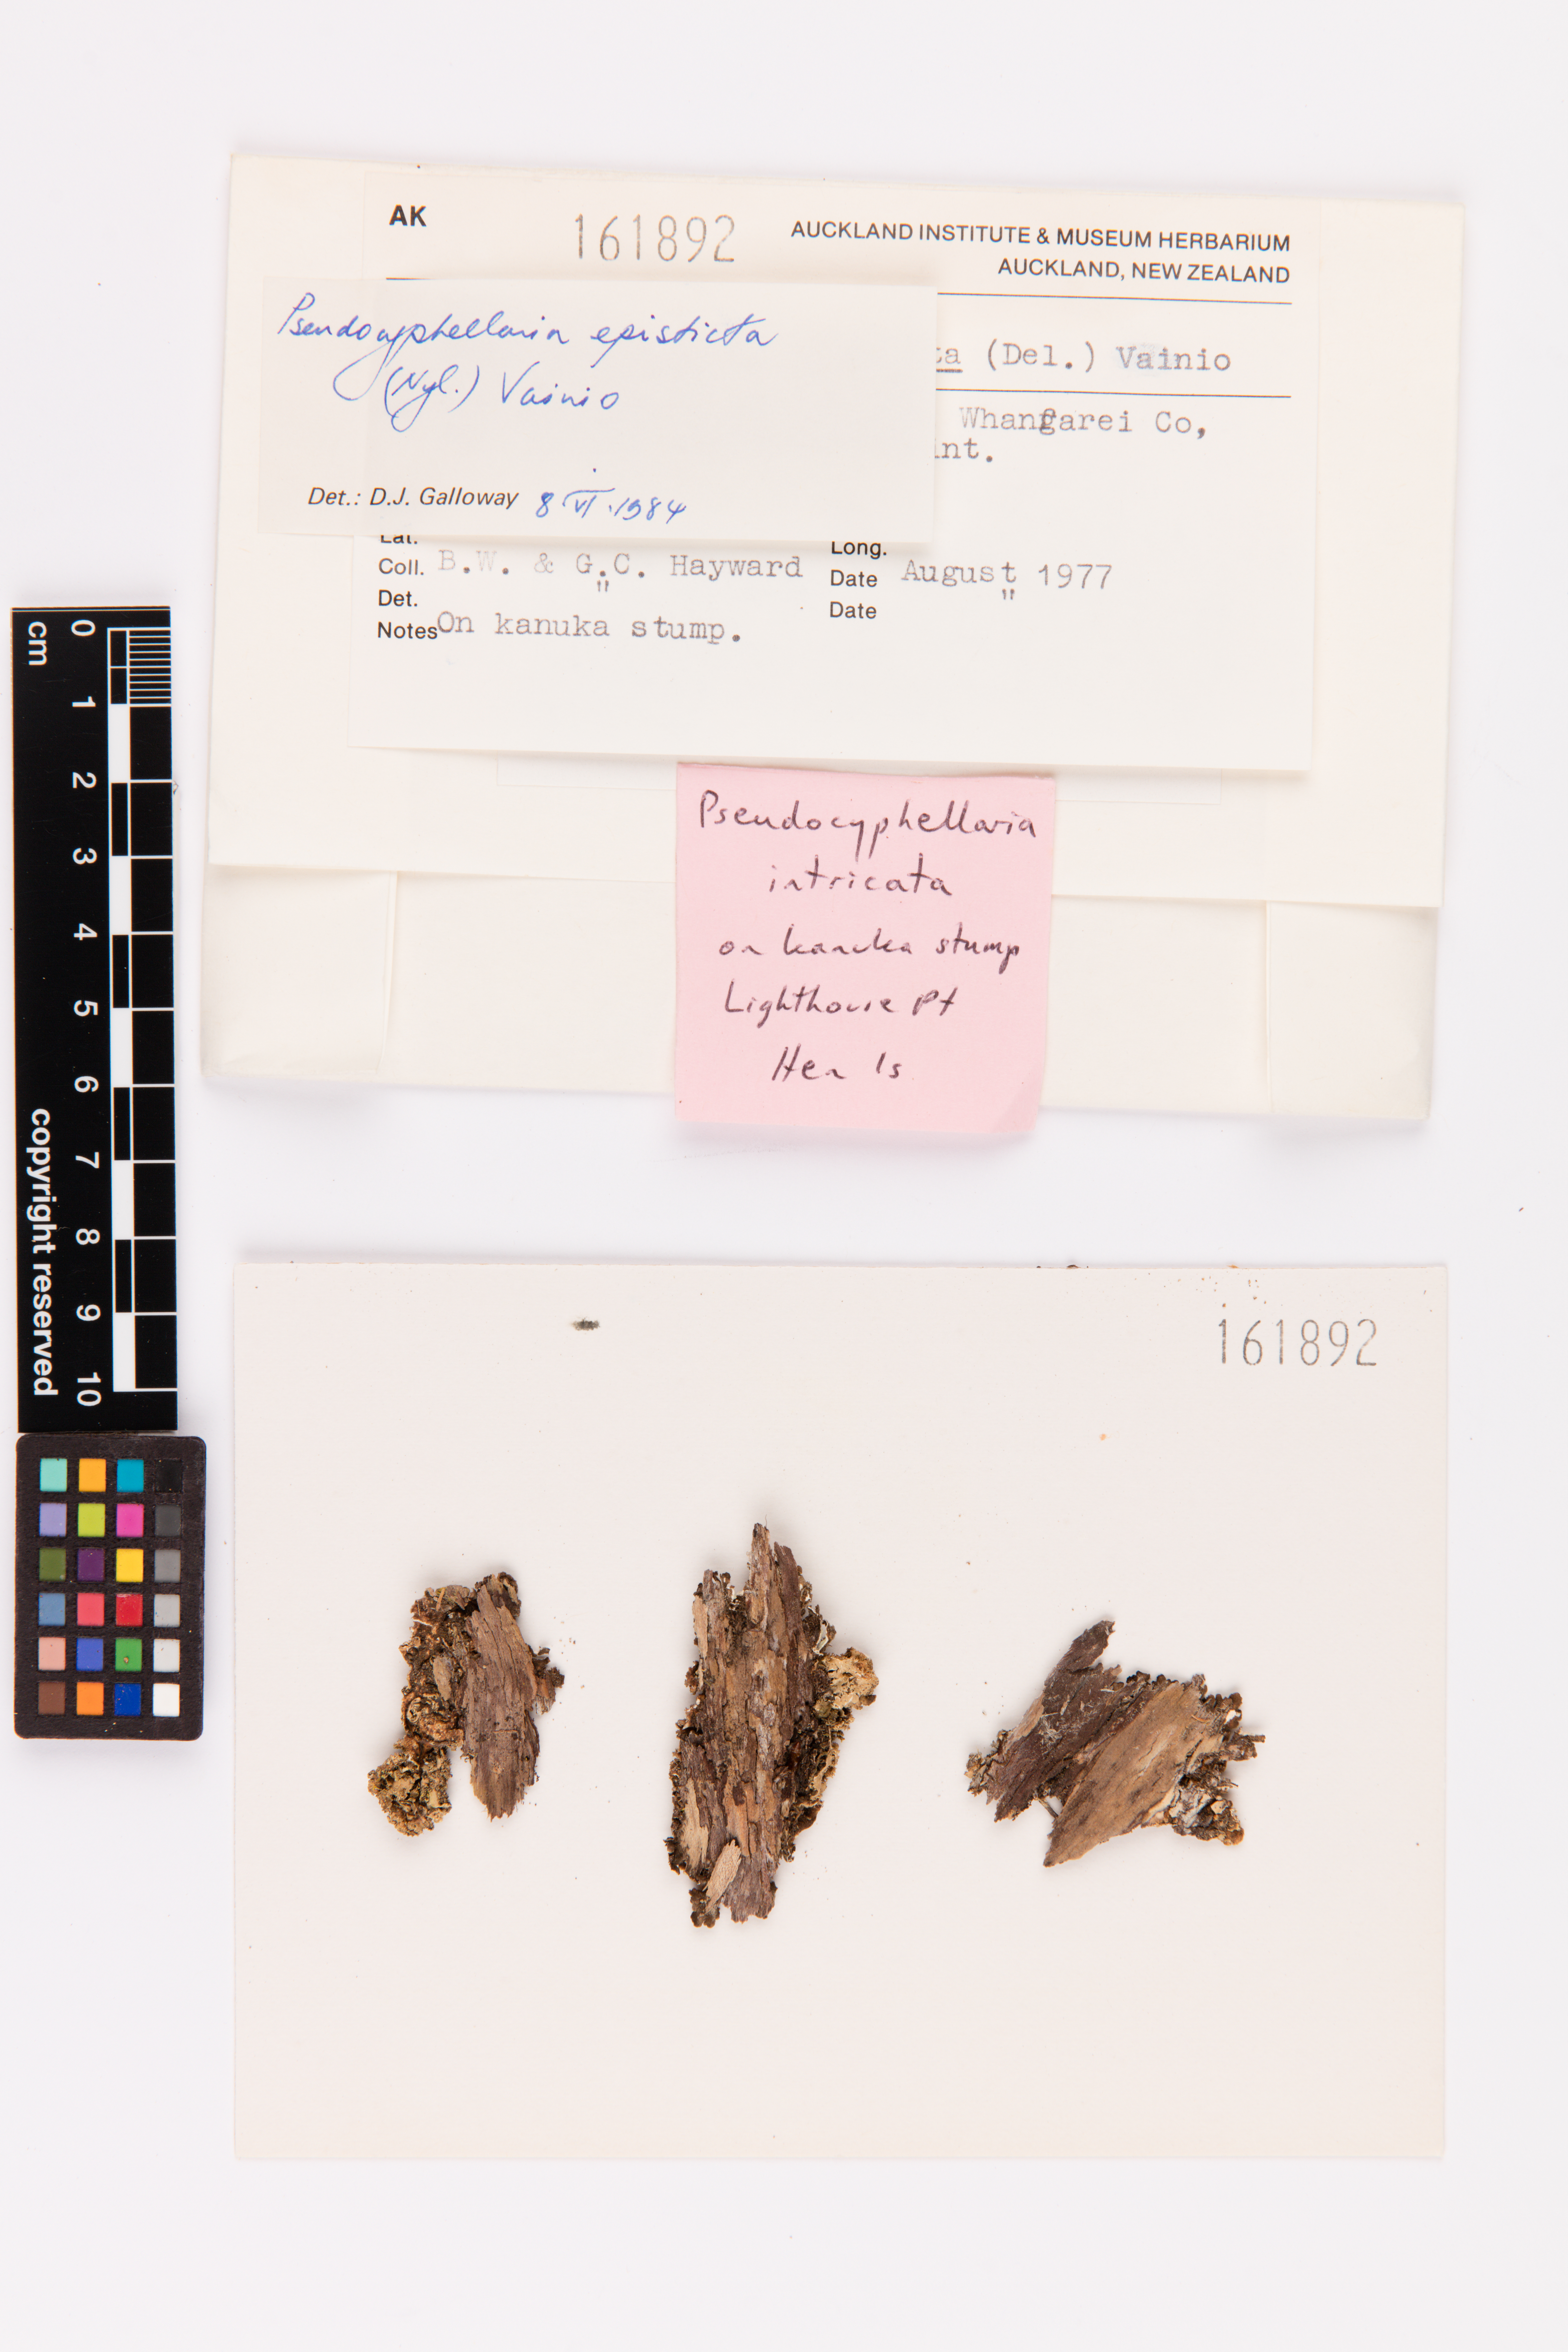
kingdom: Fungi
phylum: Ascomycota
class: Lecanoromycetes
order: Peltigerales
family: Lobariaceae
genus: Pseudocyphellaria
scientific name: Pseudocyphellaria episticta
